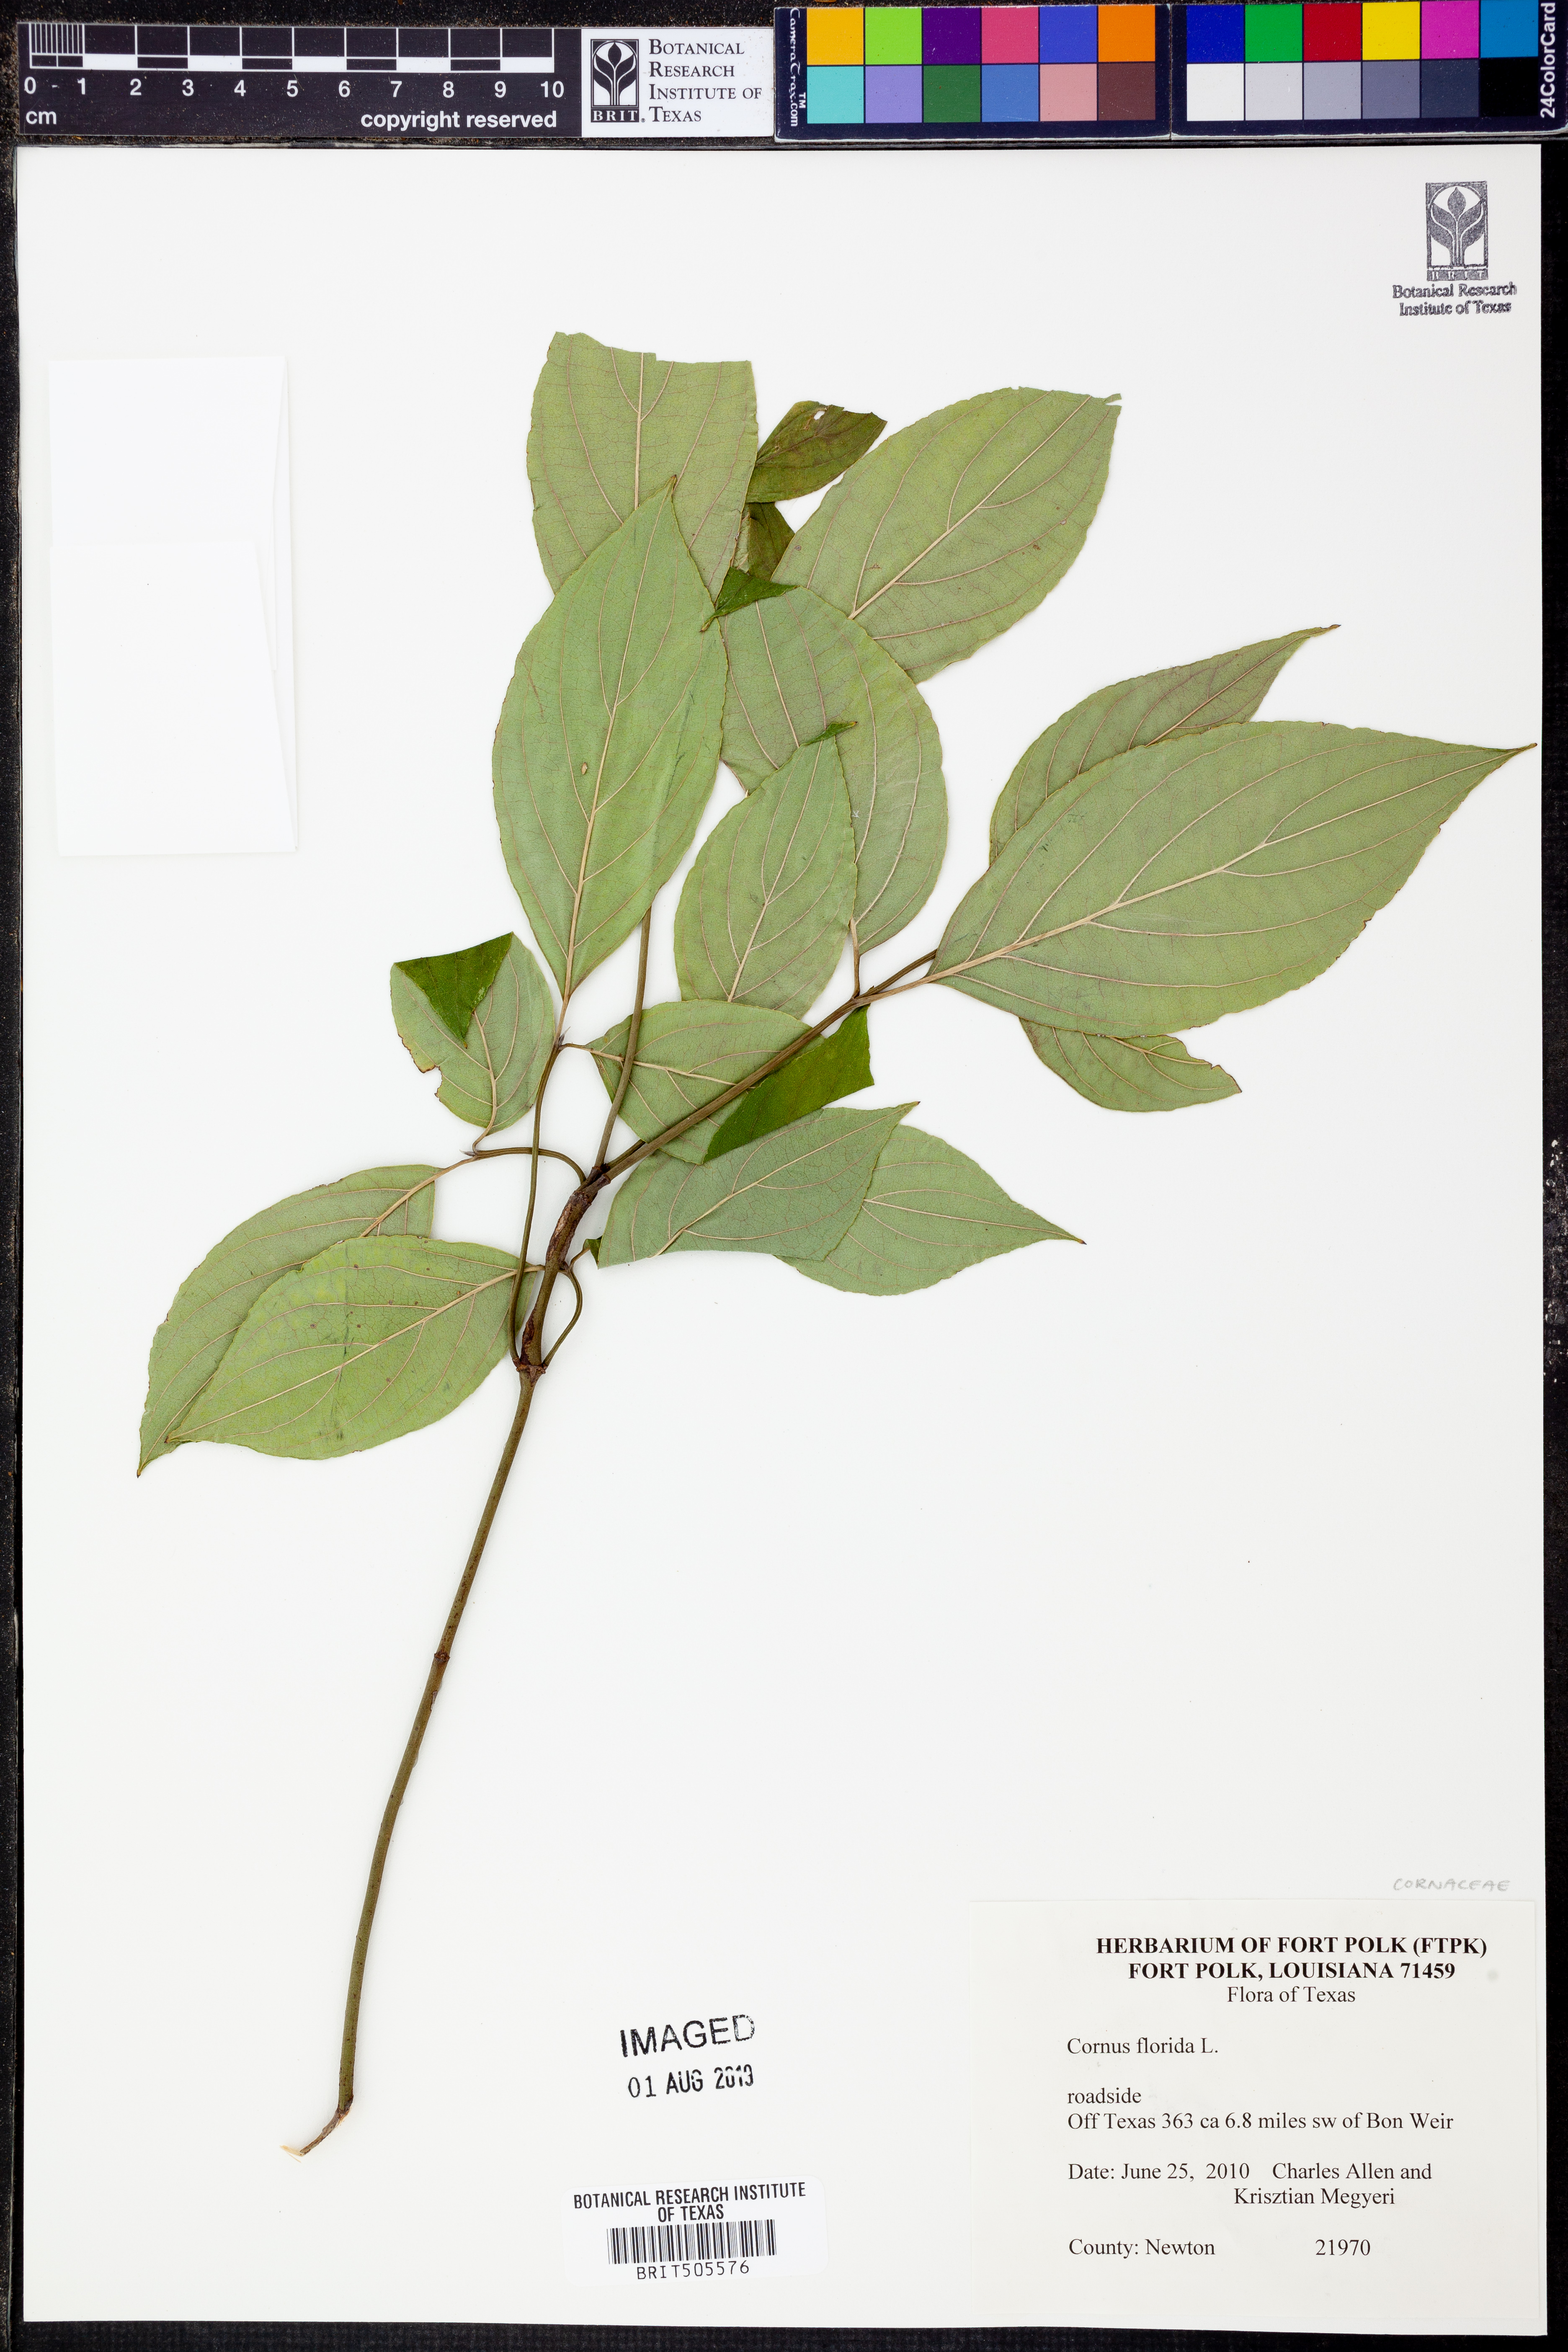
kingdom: Plantae
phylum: Tracheophyta
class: Magnoliopsida
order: Cornales
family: Cornaceae
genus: Cornus
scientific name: Cornus florida
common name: Flowering dogwood
